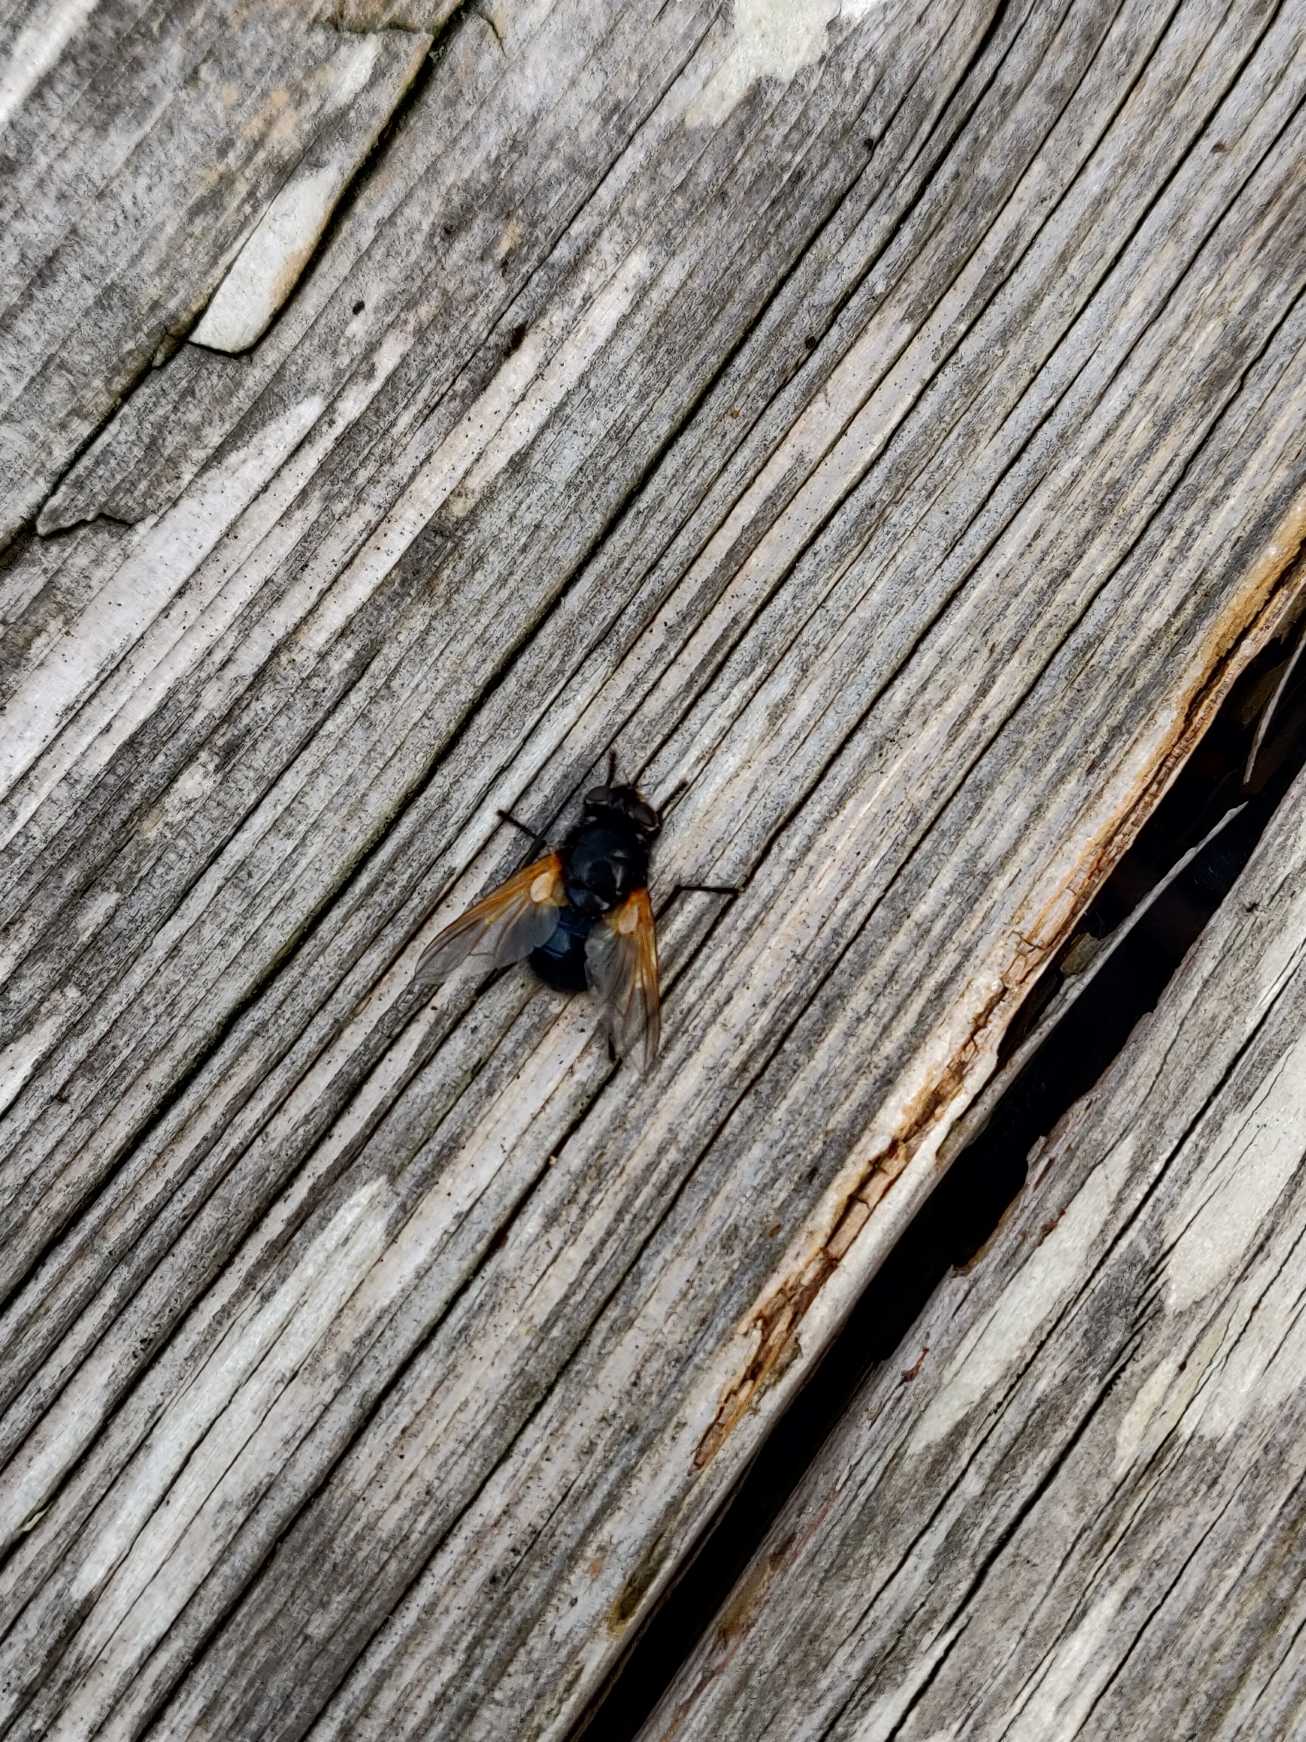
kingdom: Animalia
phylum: Arthropoda
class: Insecta
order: Diptera
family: Muscidae
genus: Mesembrina
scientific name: Mesembrina meridiana
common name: Gulvinget flue
